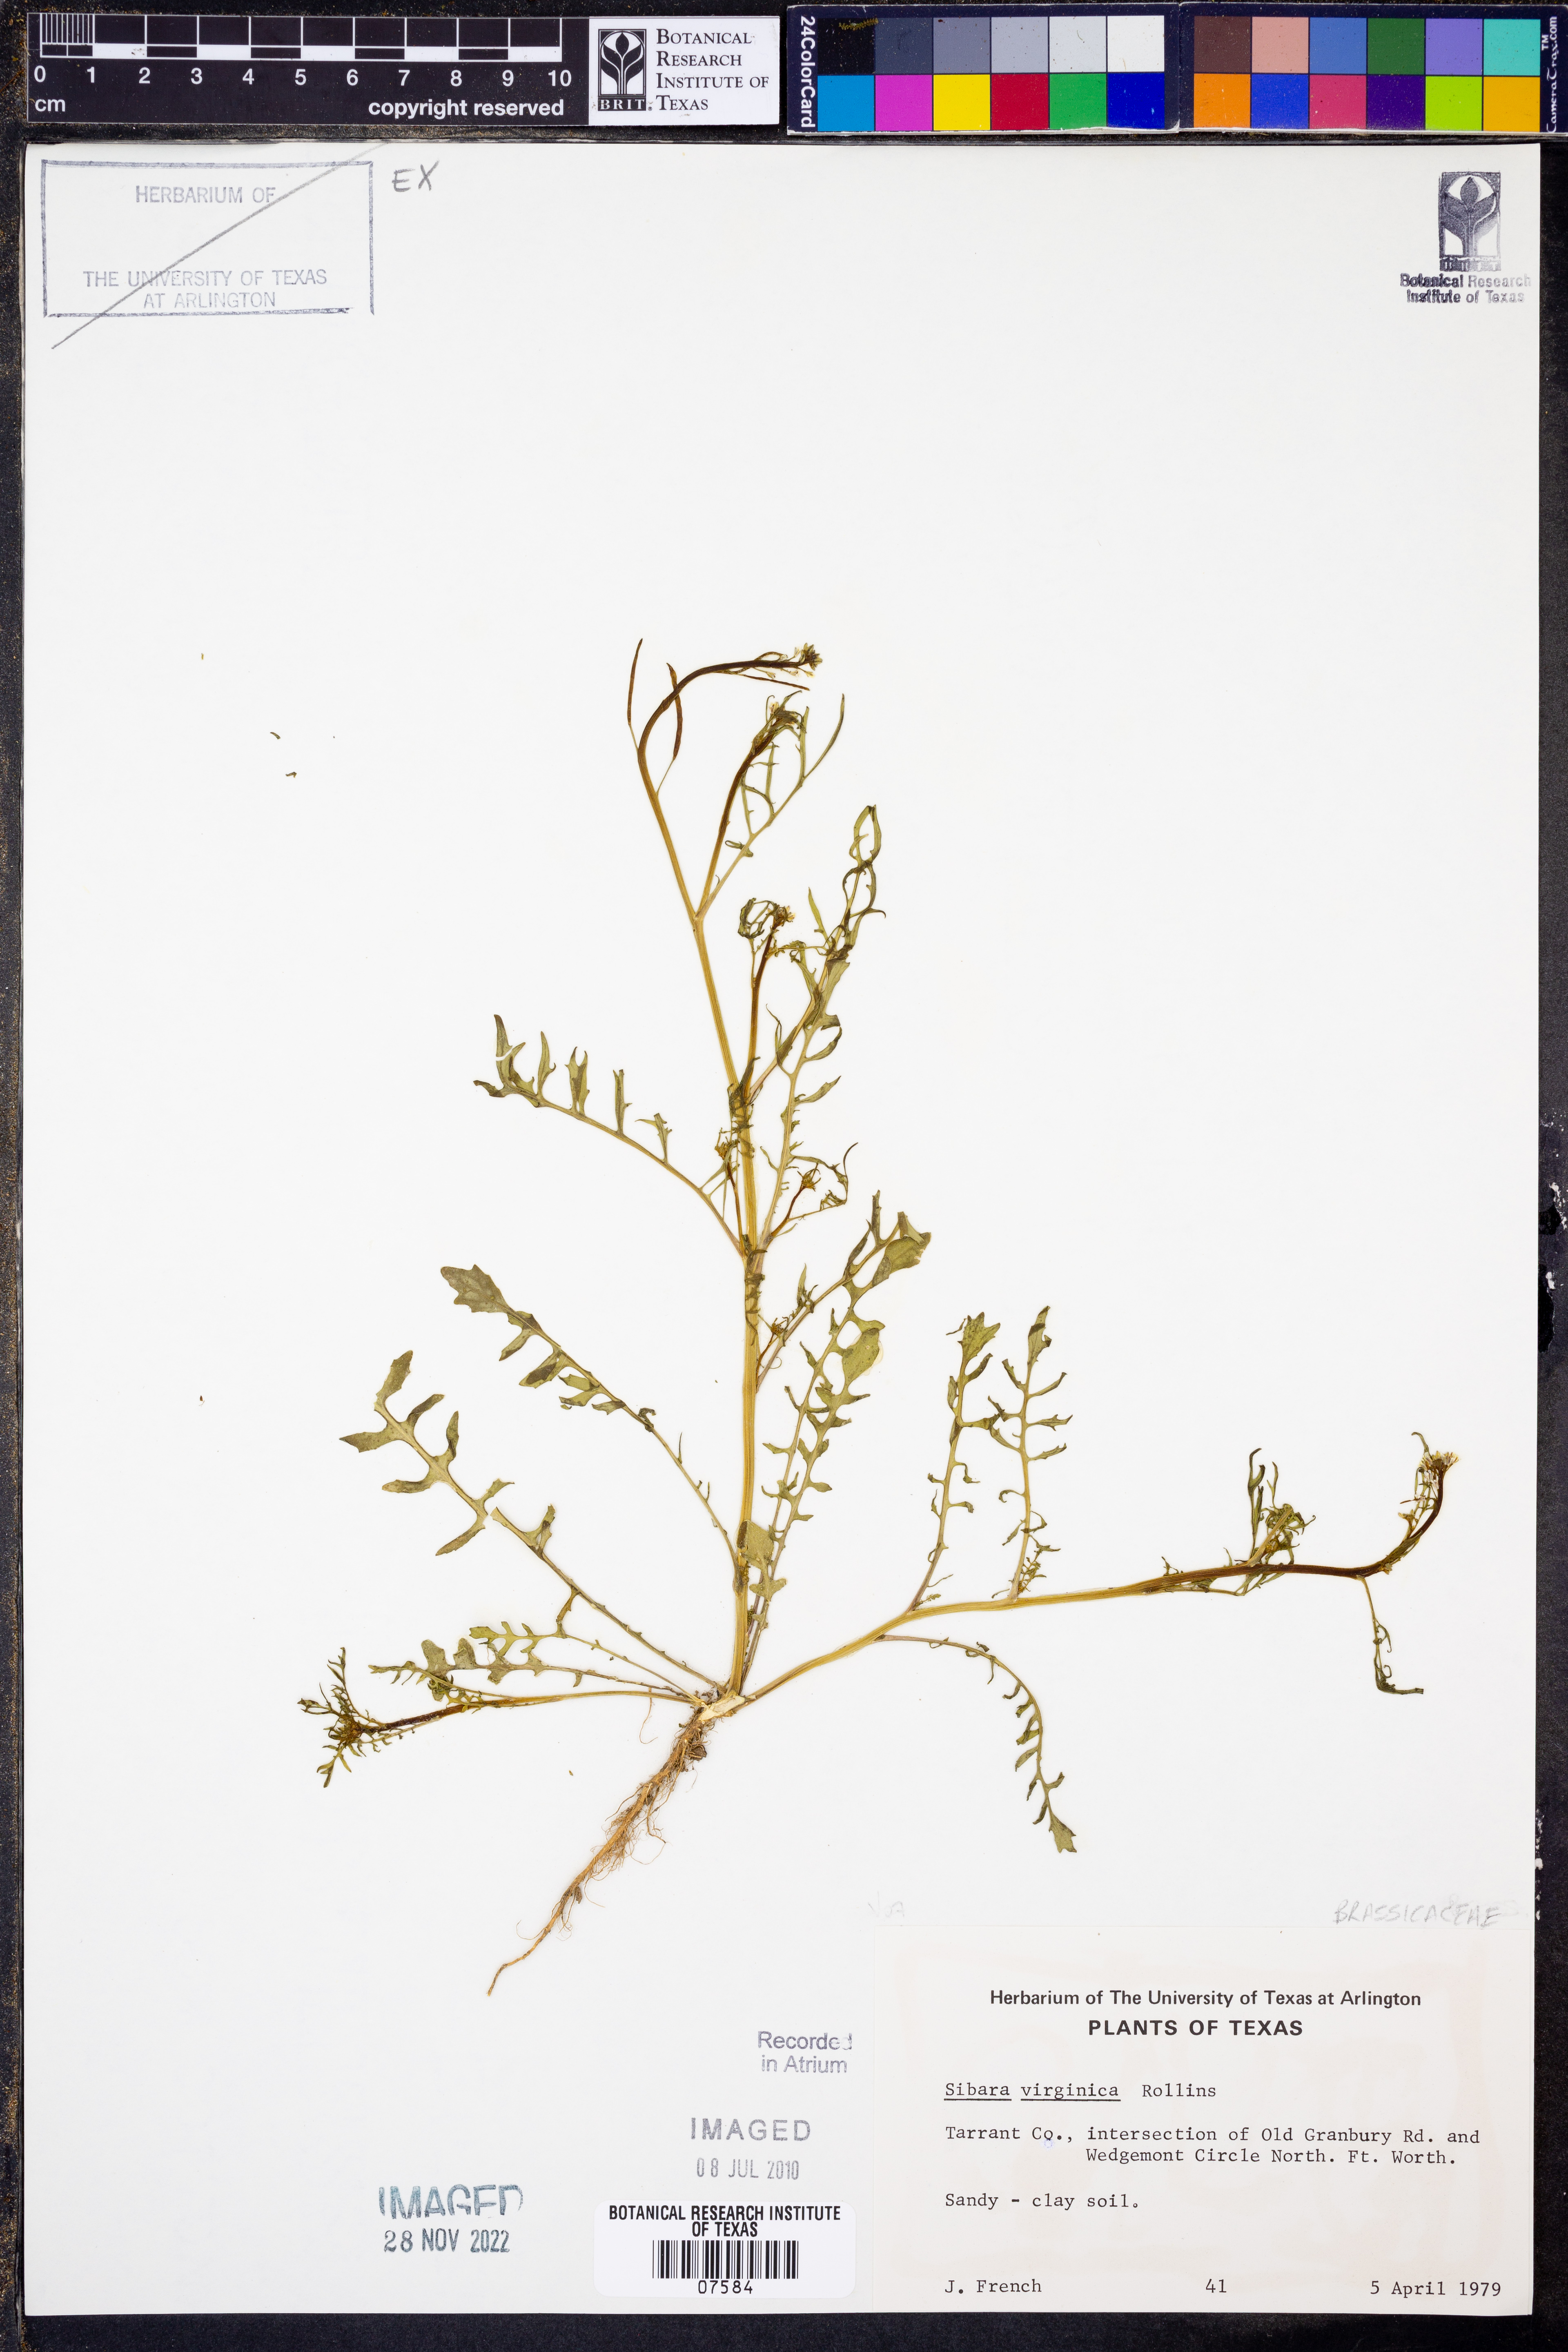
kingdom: Plantae
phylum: Tracheophyta
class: Magnoliopsida
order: Brassicales
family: Brassicaceae
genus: Planodes
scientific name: Planodes virginicum
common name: Virginia cress
